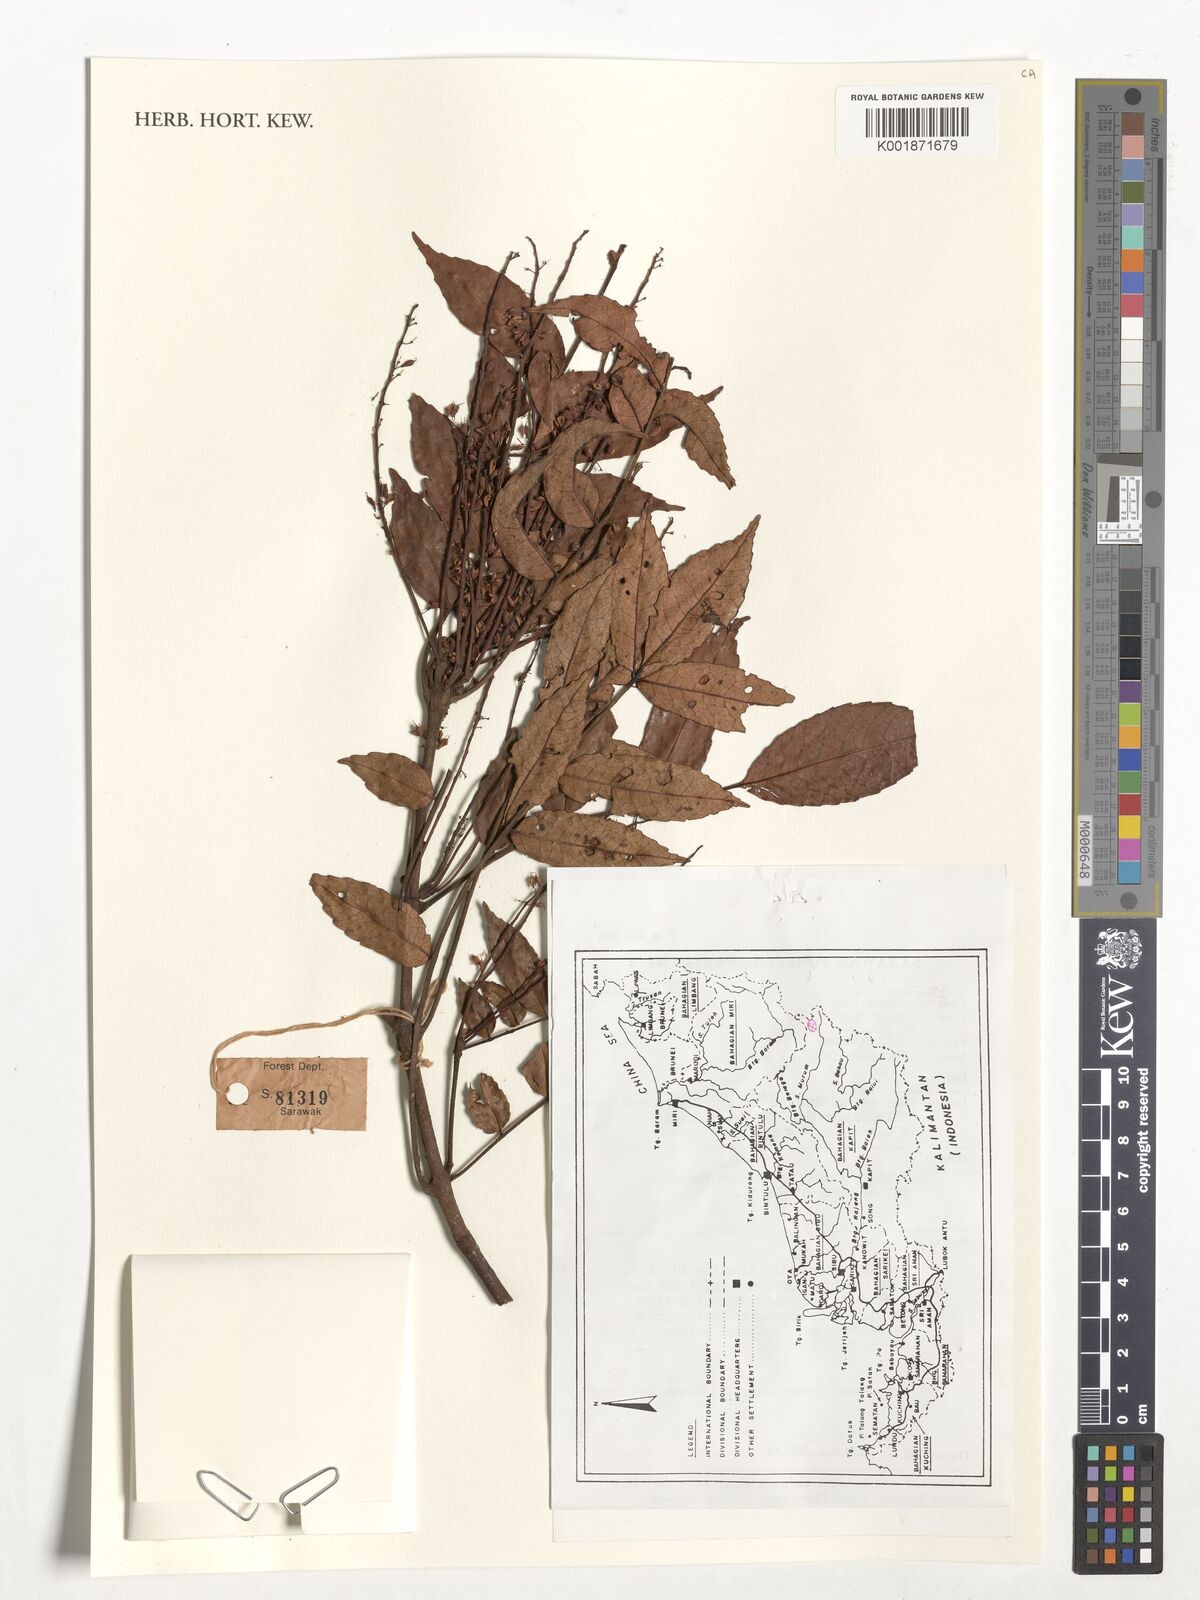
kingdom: Plantae
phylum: Tracheophyta
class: Magnoliopsida
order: Fagales
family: Juglandaceae
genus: Engelhardia
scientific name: Engelhardia
